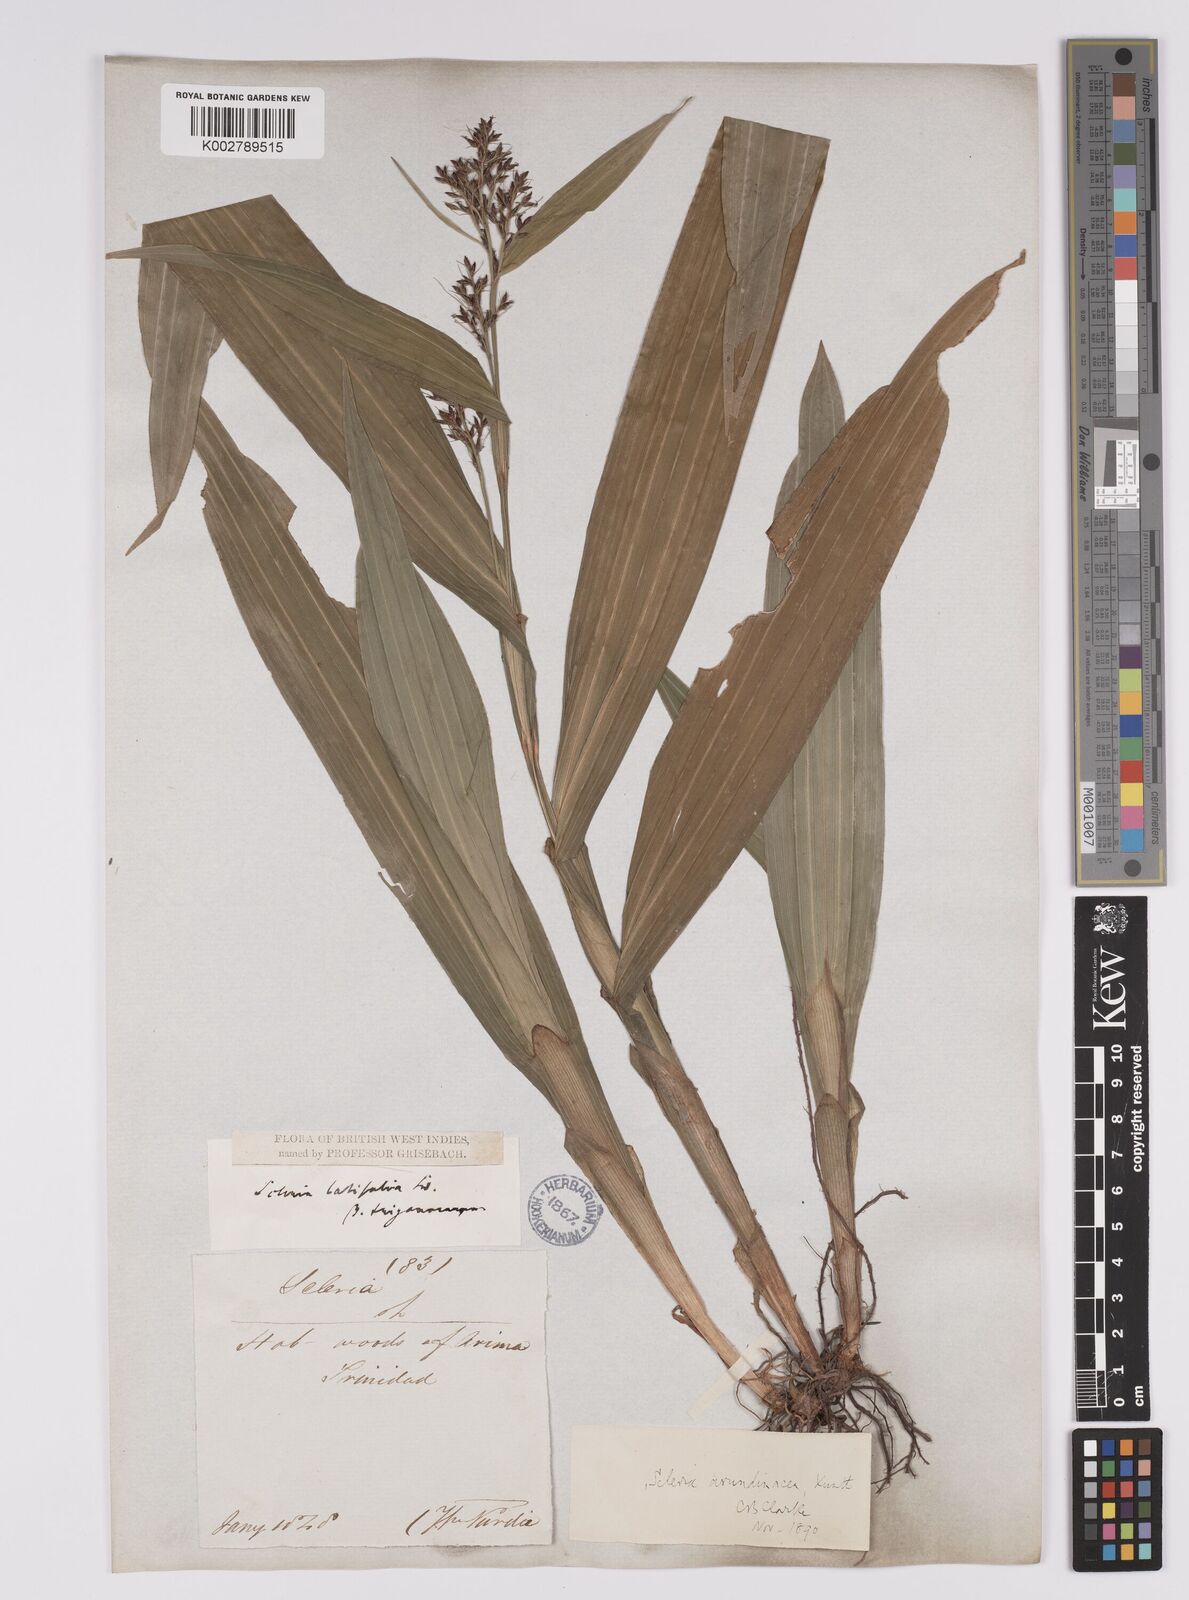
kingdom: Plantae
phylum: Tracheophyta
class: Liliopsida
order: Poales
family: Cyperaceae
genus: Scleria
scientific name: Scleria latifolia
